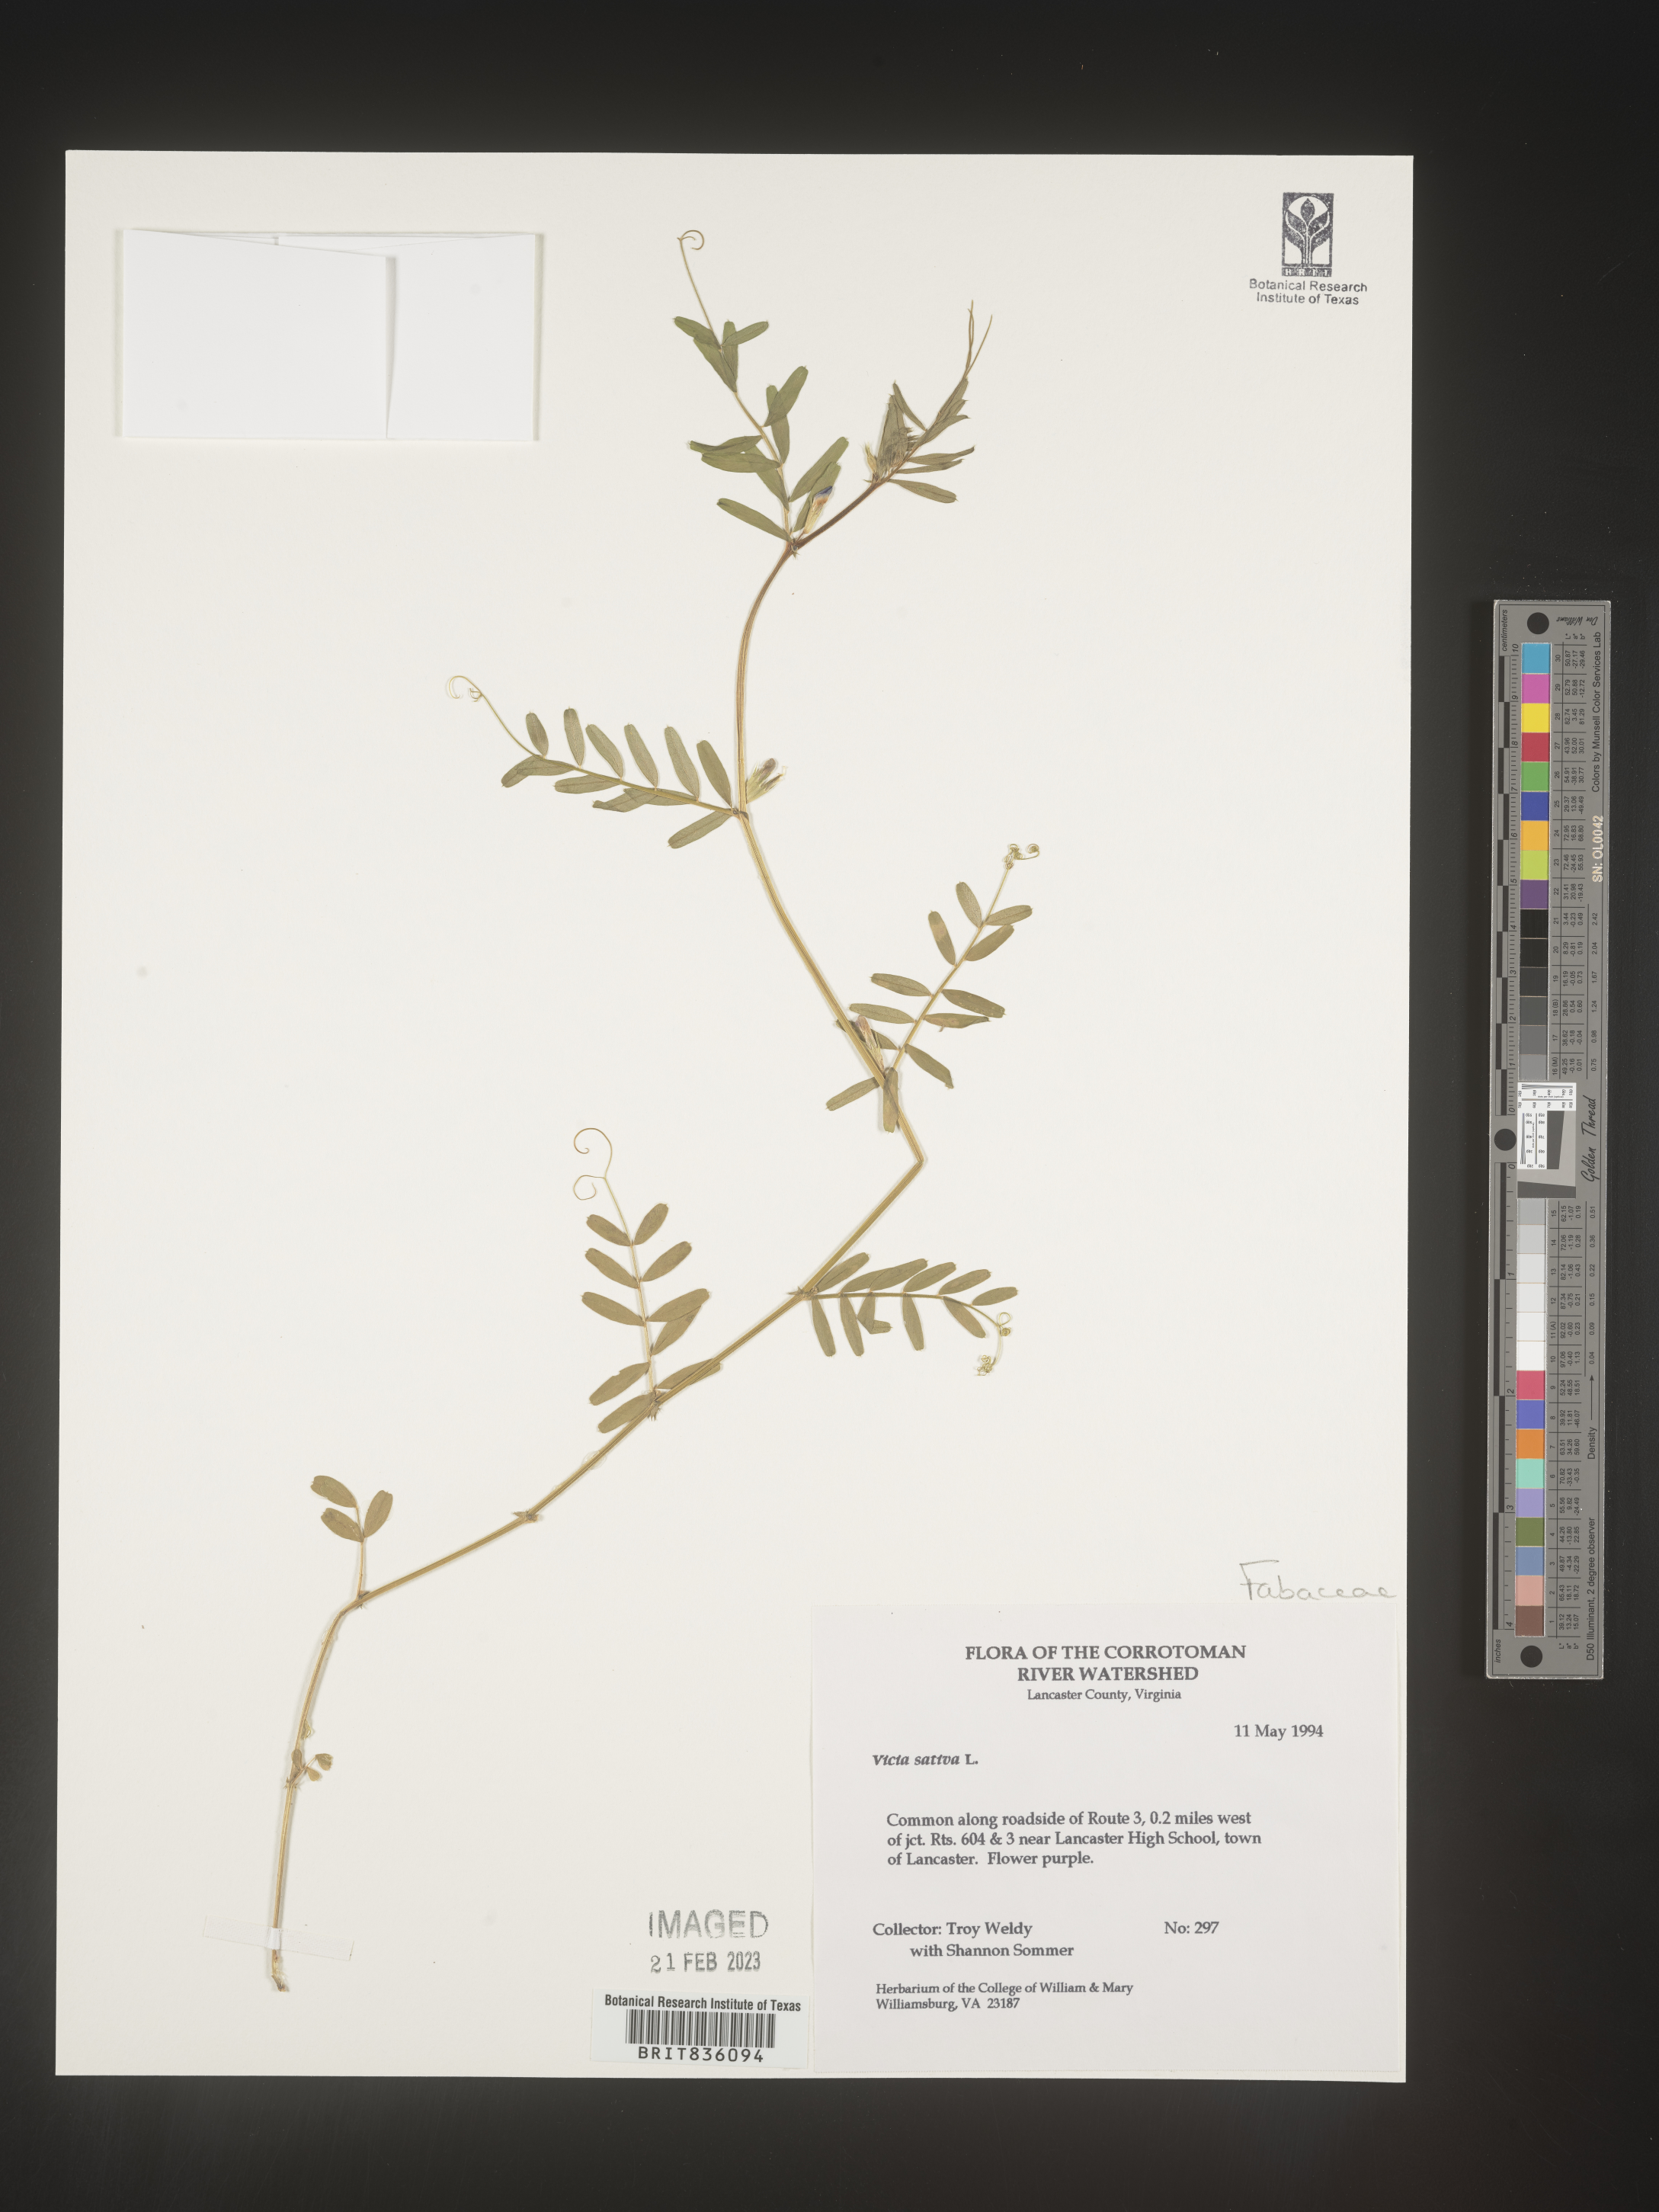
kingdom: Plantae
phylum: Tracheophyta
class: Magnoliopsida
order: Fabales
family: Fabaceae
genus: Vicia
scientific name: Vicia sativa
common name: Garden vetch
